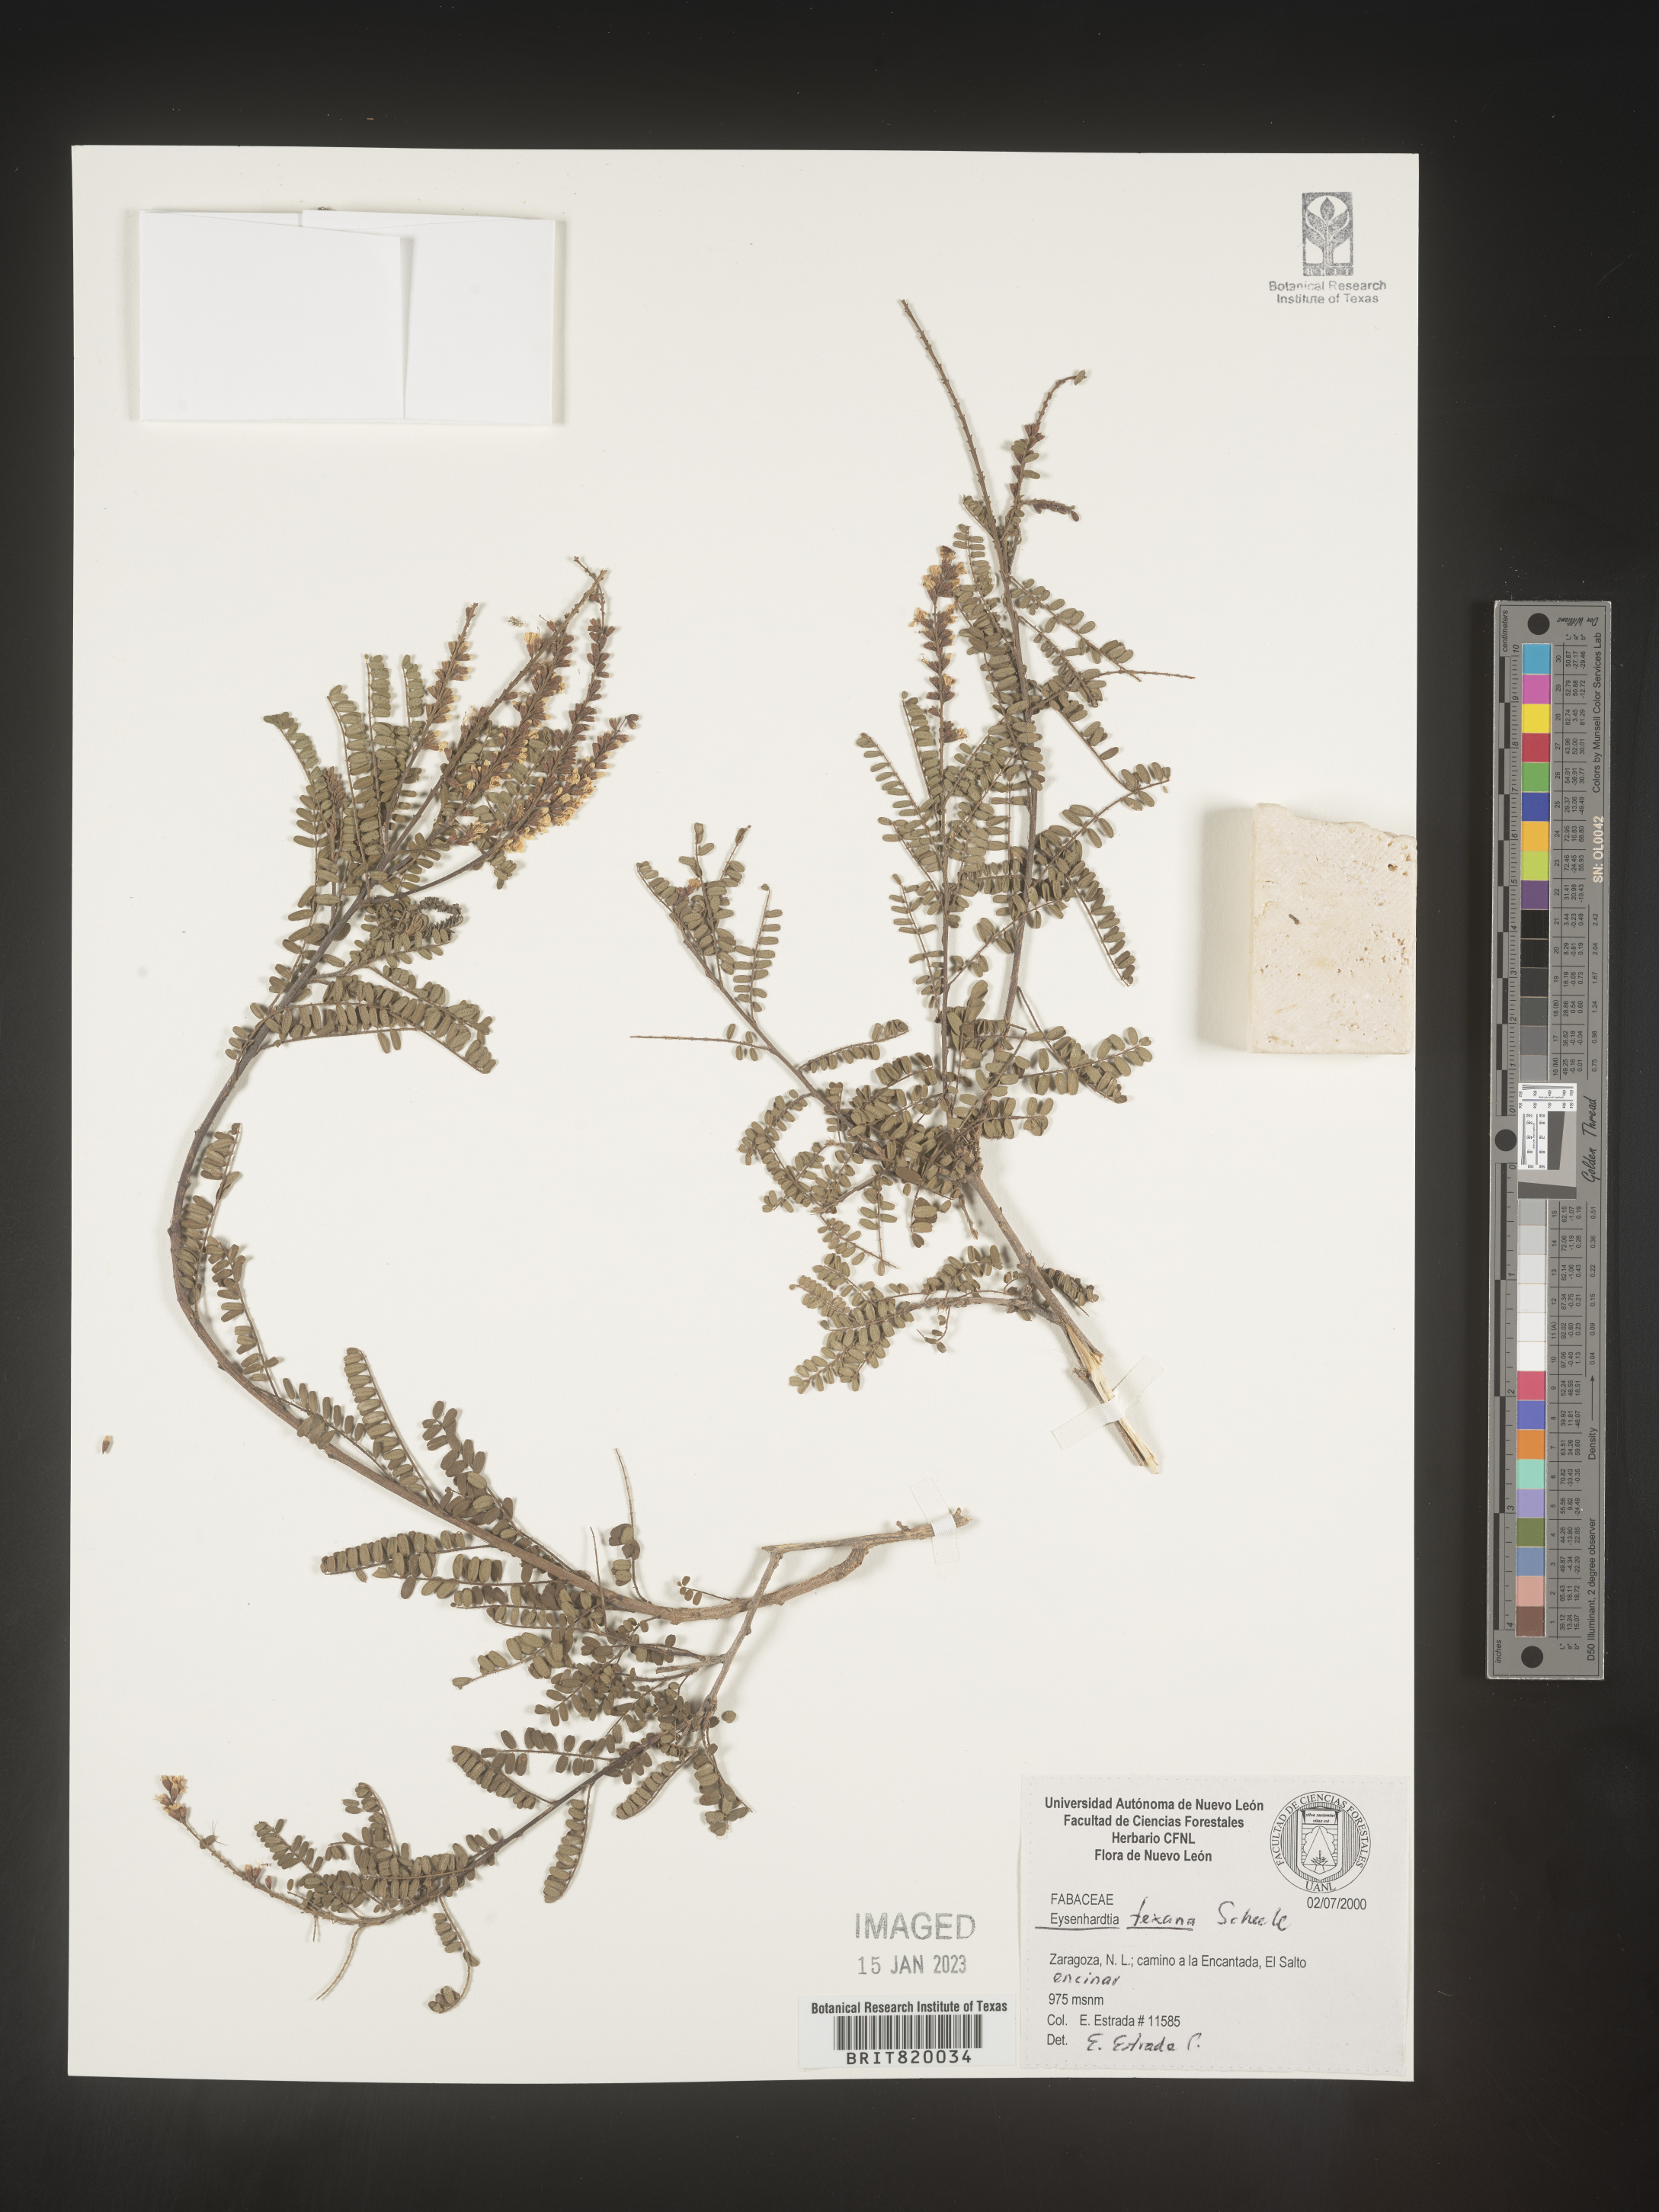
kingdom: Plantae
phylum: Tracheophyta
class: Magnoliopsida
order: Fabales
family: Fabaceae
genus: Eysenhardtia
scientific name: Eysenhardtia
